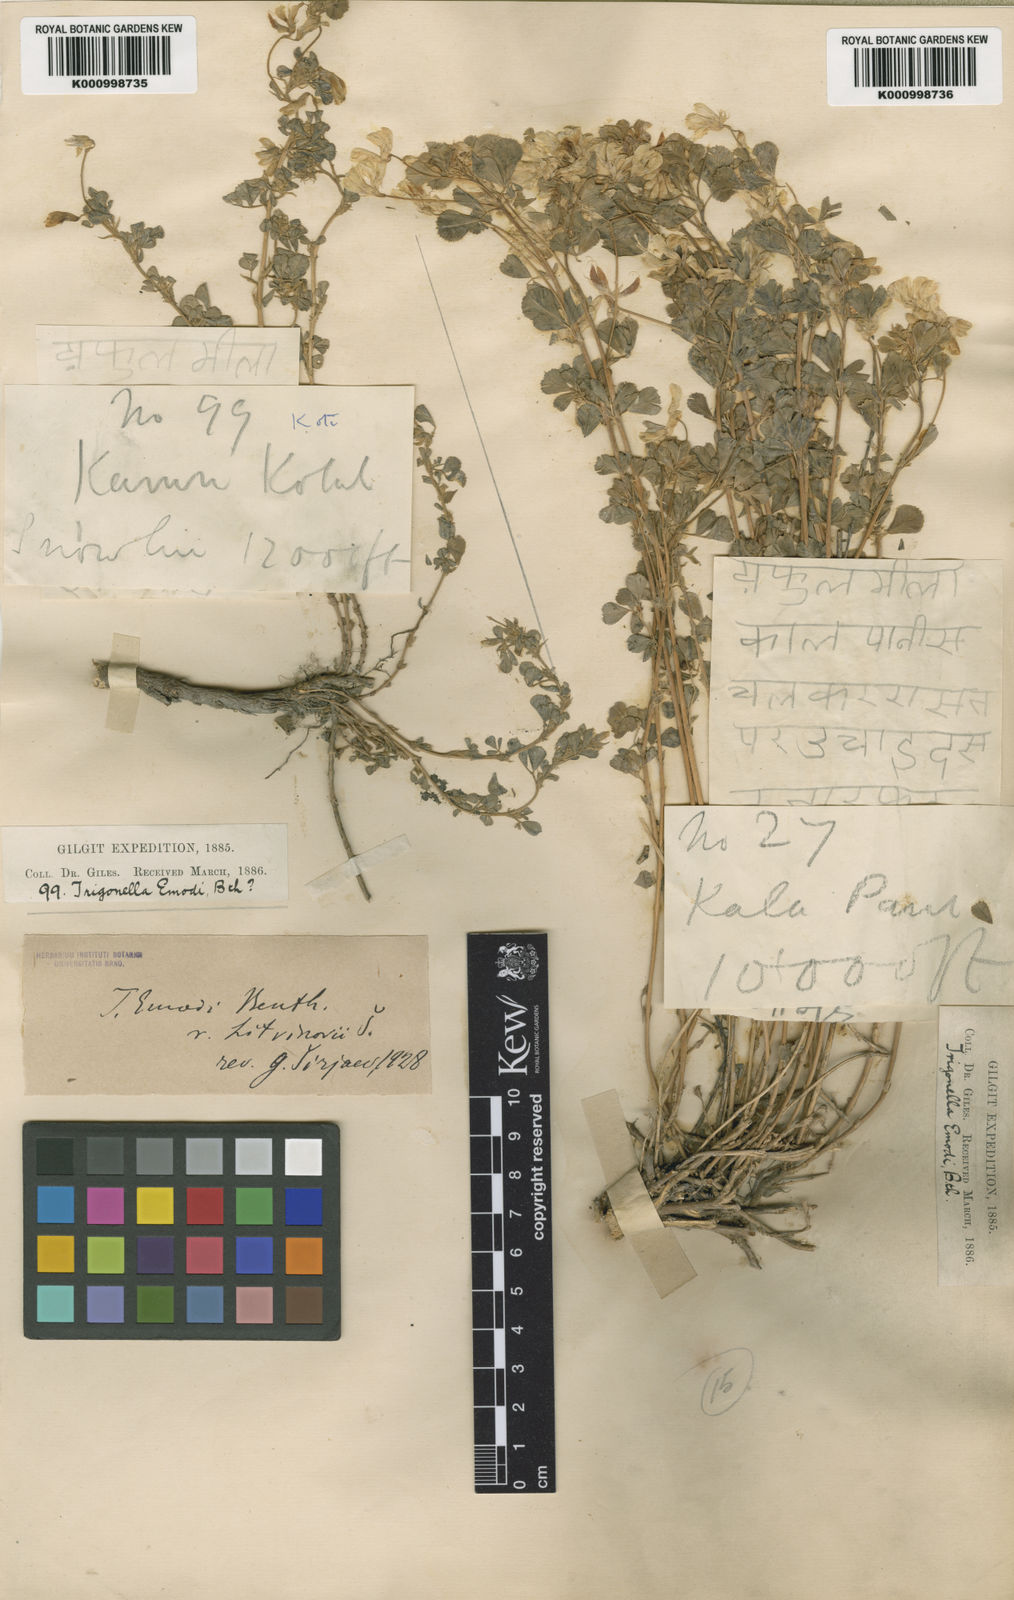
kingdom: Plantae
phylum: Tracheophyta
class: Magnoliopsida
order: Fabales
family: Fabaceae
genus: Trigonella
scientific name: Trigonella cachemiriana
